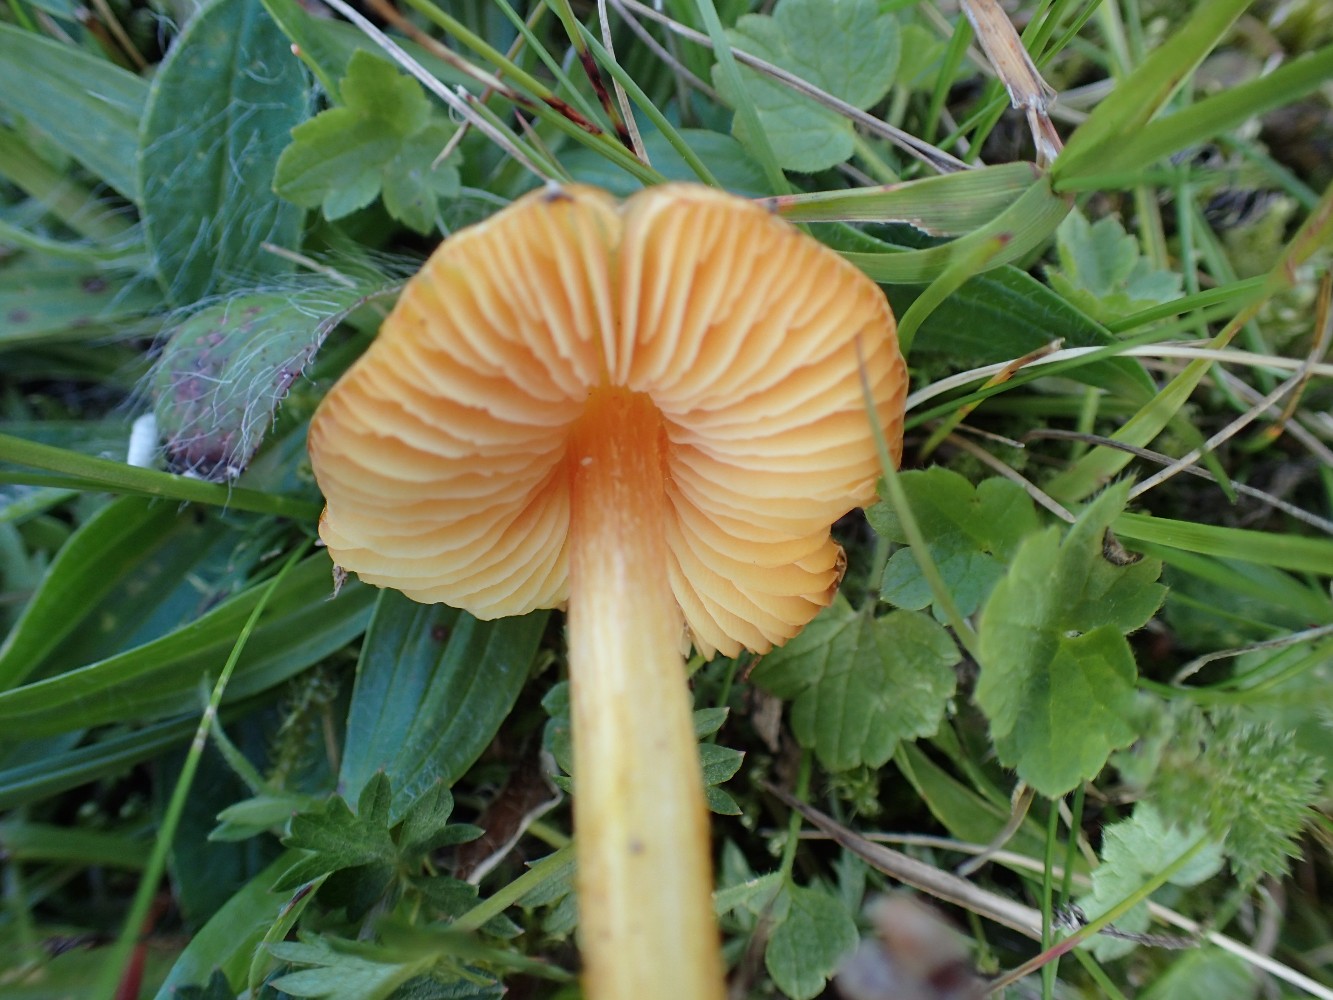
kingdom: Fungi
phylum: Basidiomycota
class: Agaricomycetes
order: Agaricales
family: Hygrophoraceae
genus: Hygrocybe
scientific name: Hygrocybe
